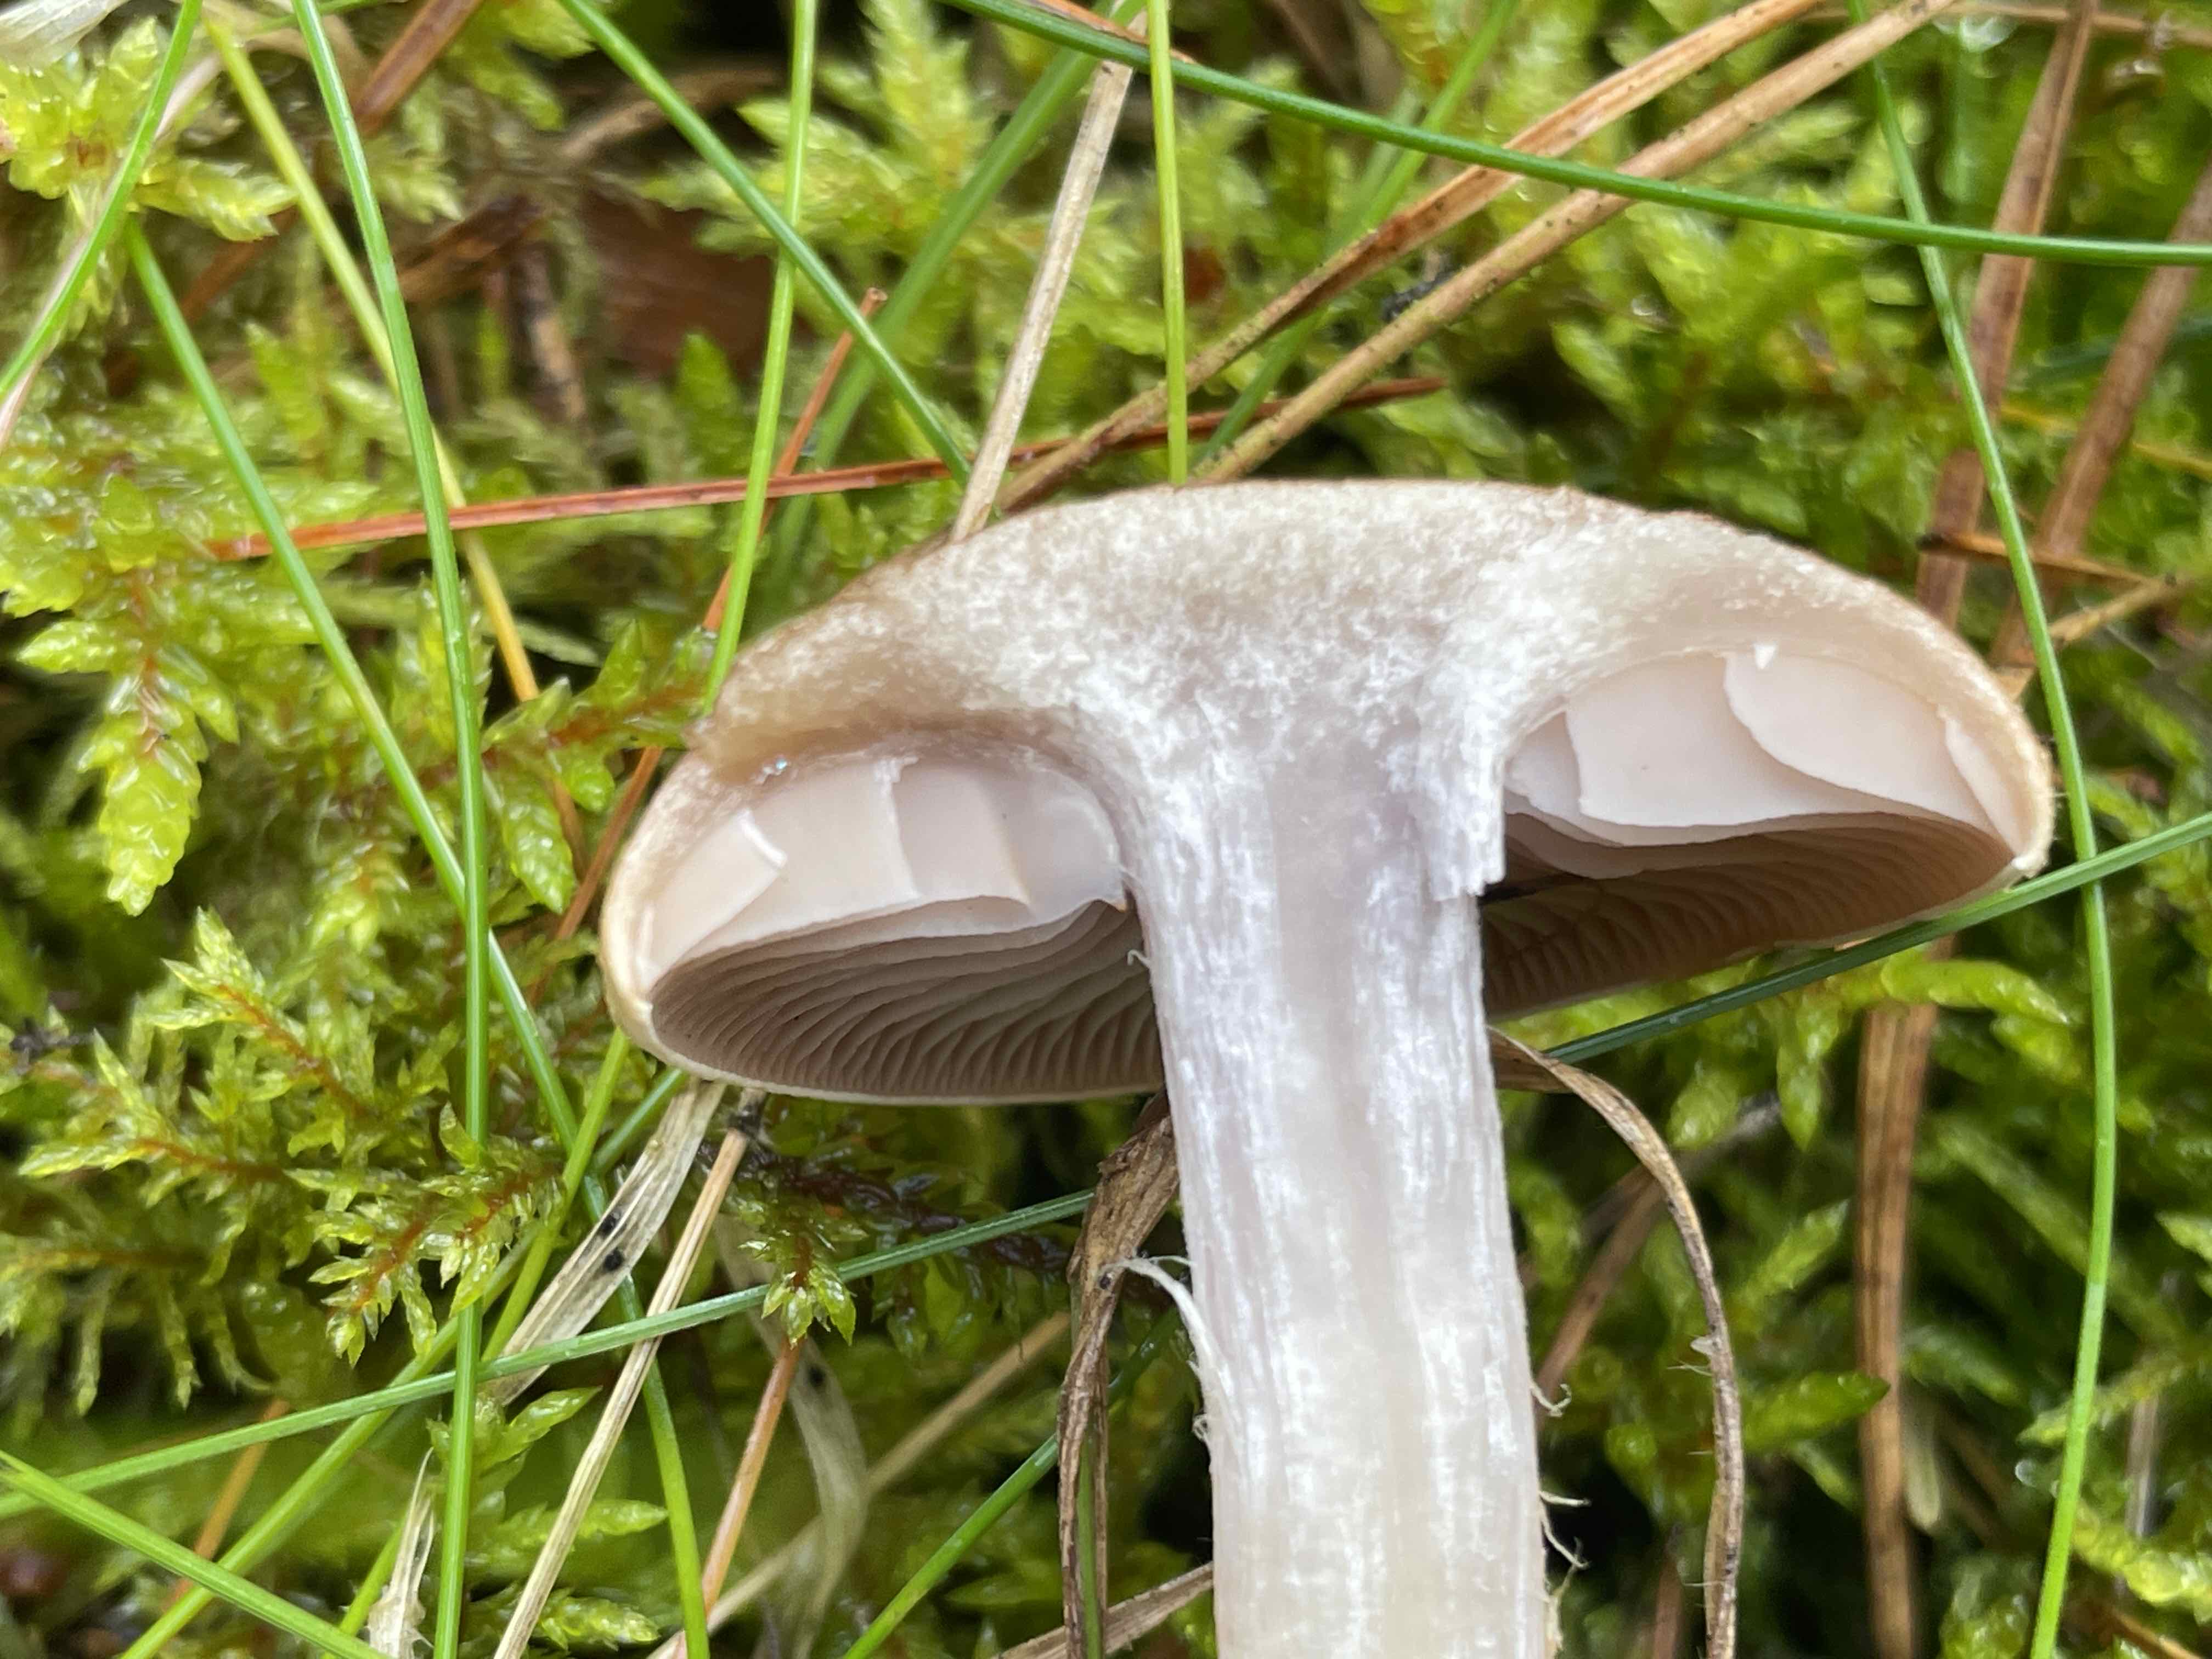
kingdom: Fungi
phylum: Basidiomycota
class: Agaricomycetes
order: Agaricales
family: Cortinariaceae
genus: Cortinarius
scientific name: Cortinarius
